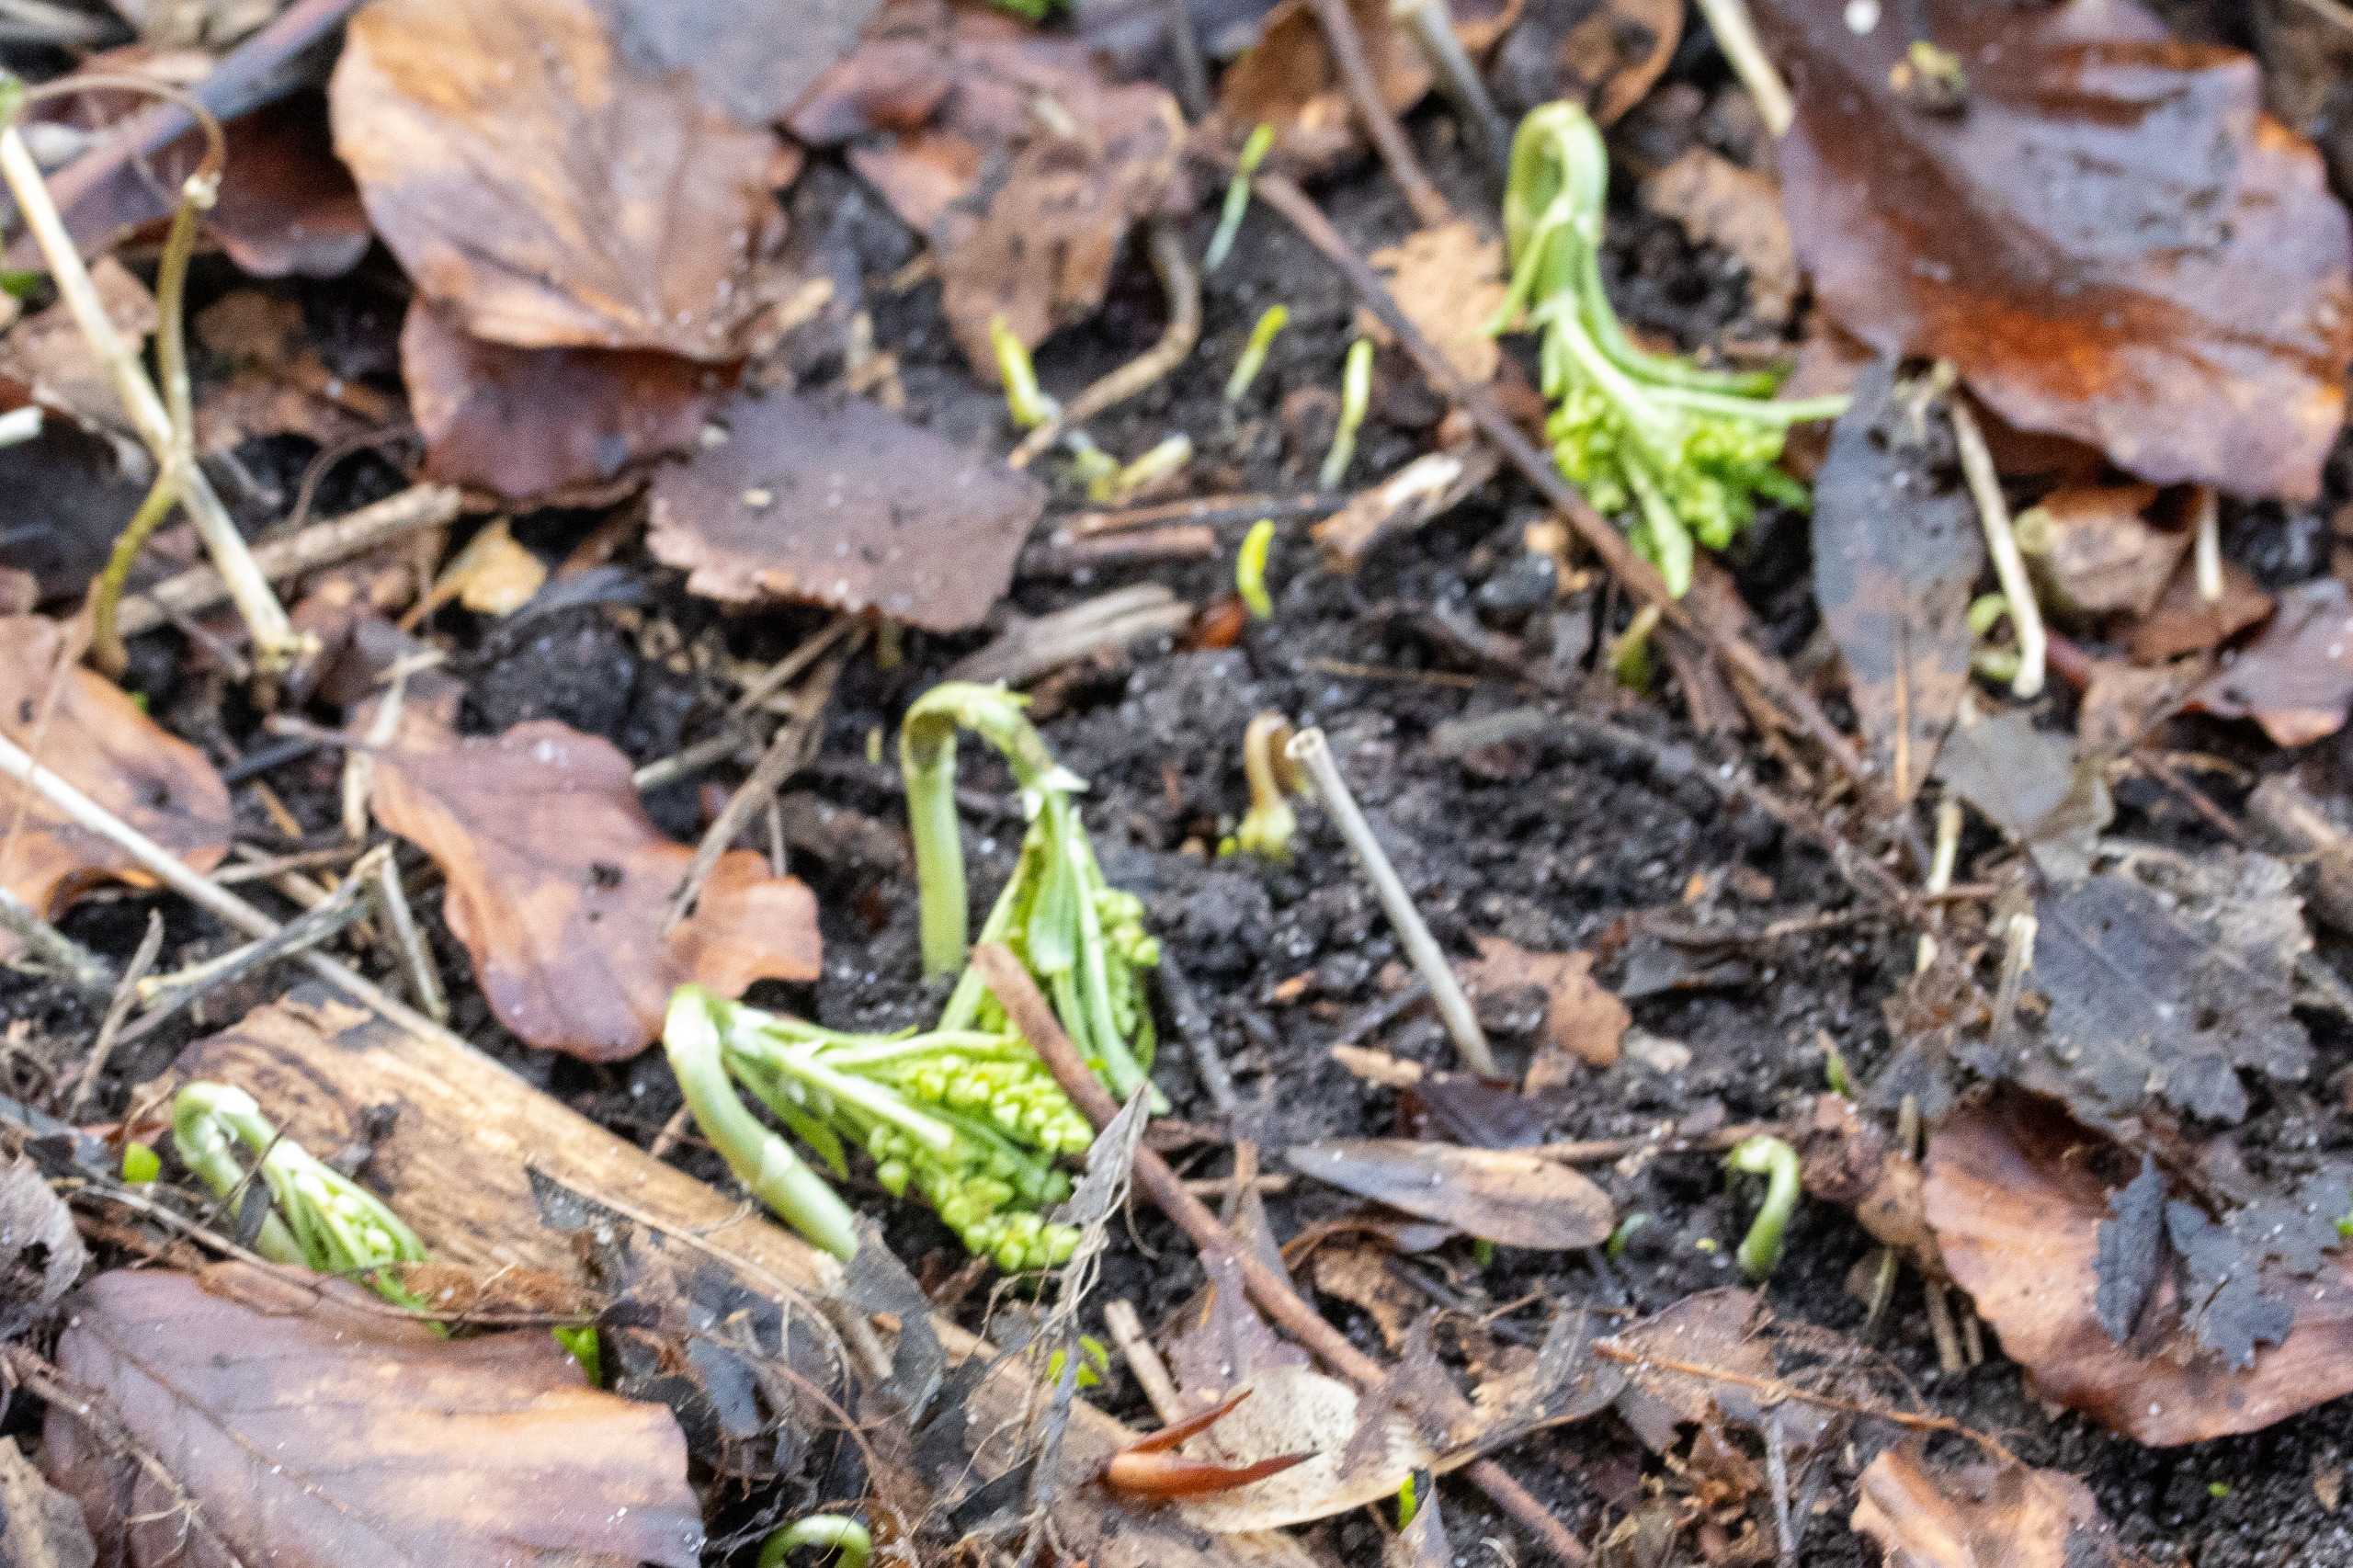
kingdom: Plantae
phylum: Tracheophyta
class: Magnoliopsida
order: Malpighiales
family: Euphorbiaceae
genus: Mercurialis
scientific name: Mercurialis perennis
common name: Almindelig bingelurt
